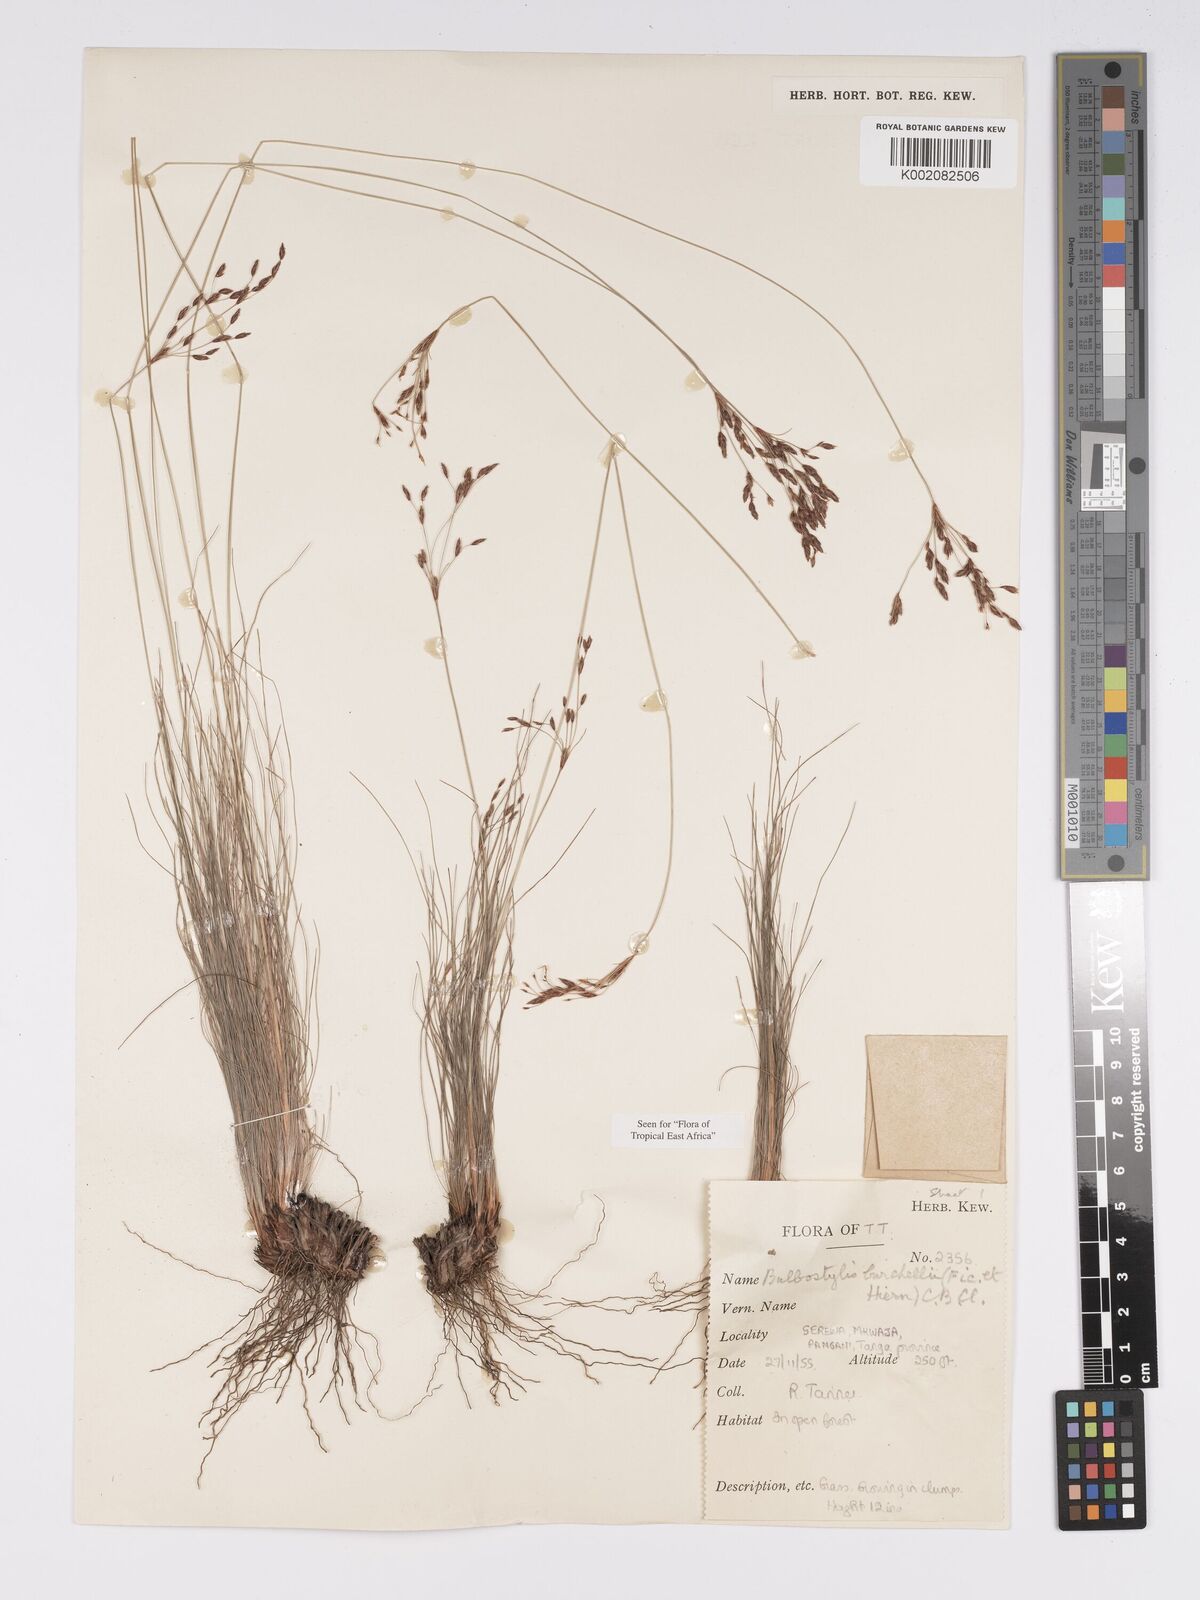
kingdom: Plantae
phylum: Tracheophyta
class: Liliopsida
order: Poales
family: Cyperaceae
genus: Bulbostylis
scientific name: Bulbostylis burchellii
